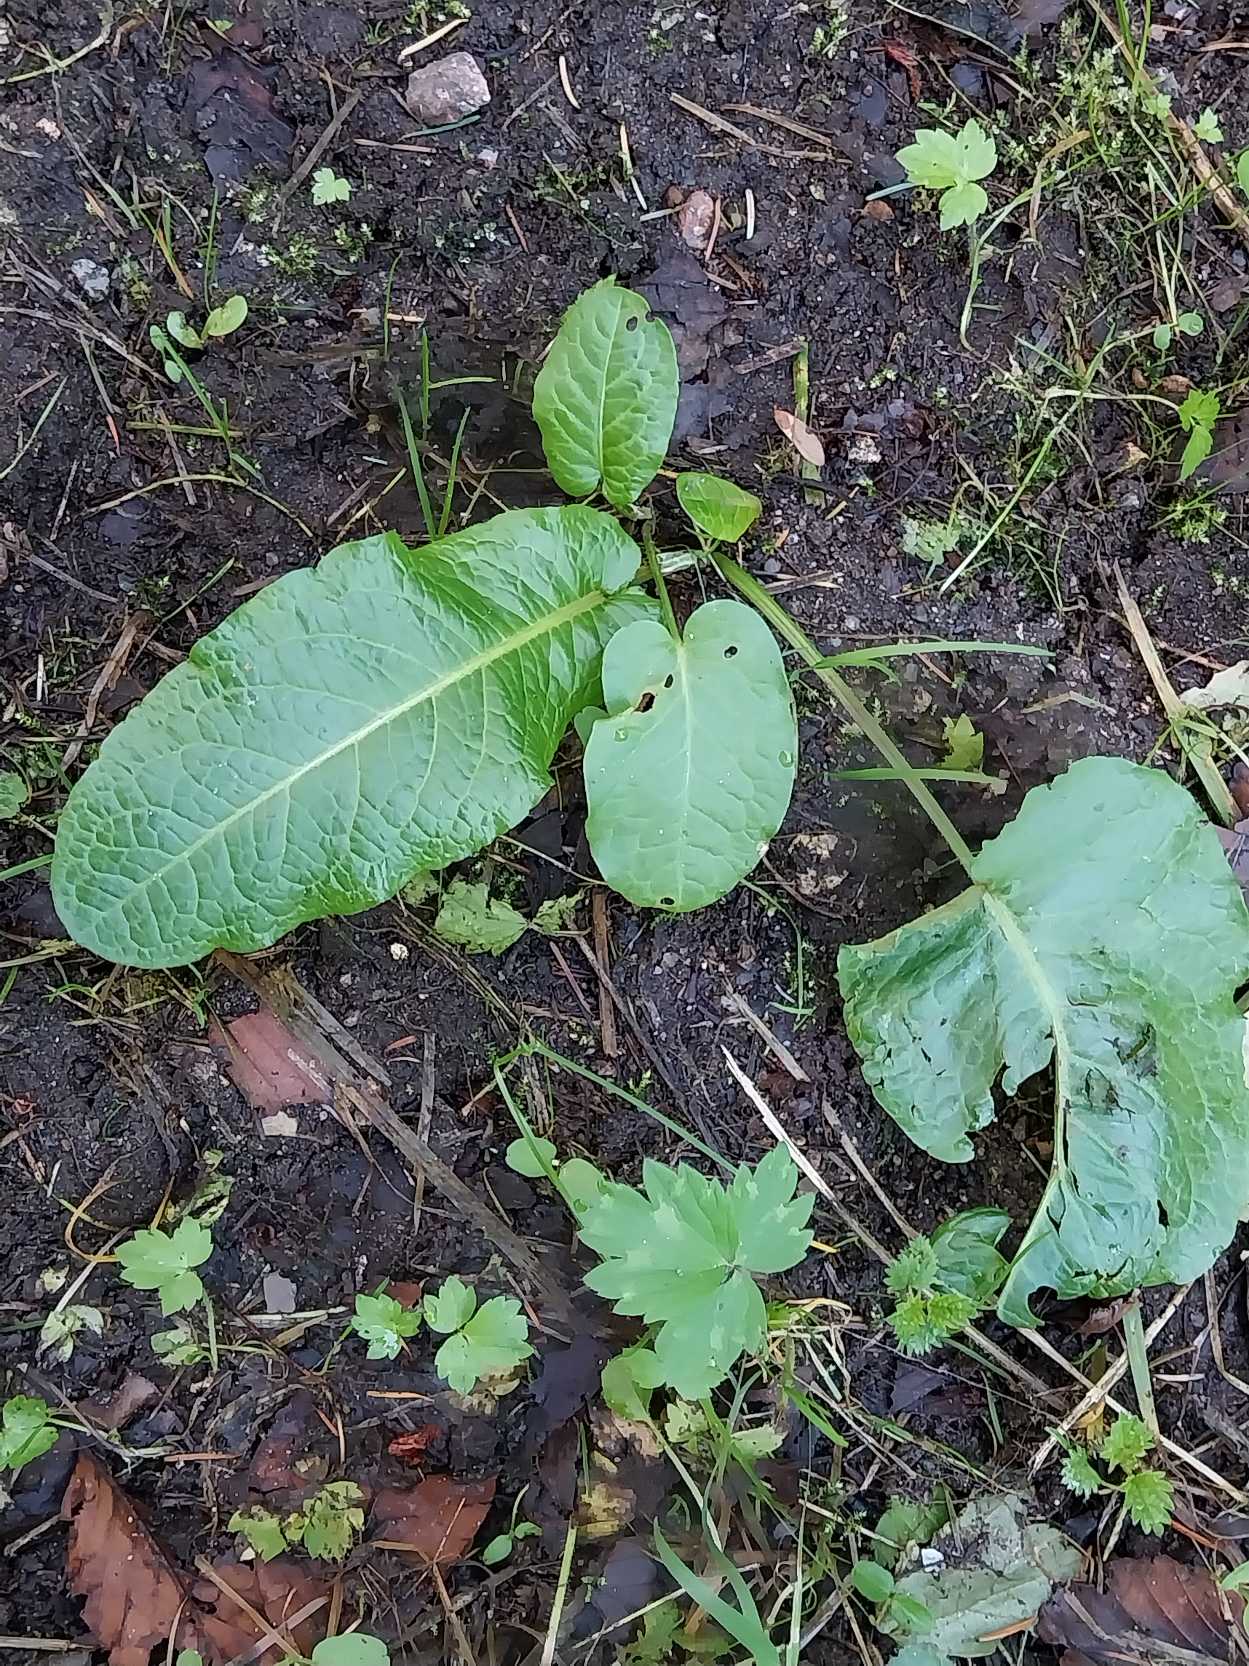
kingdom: Plantae
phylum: Tracheophyta
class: Magnoliopsida
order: Caryophyllales
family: Polygonaceae
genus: Rumex
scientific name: Rumex obtusifolius
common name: Butbladet skræppe
